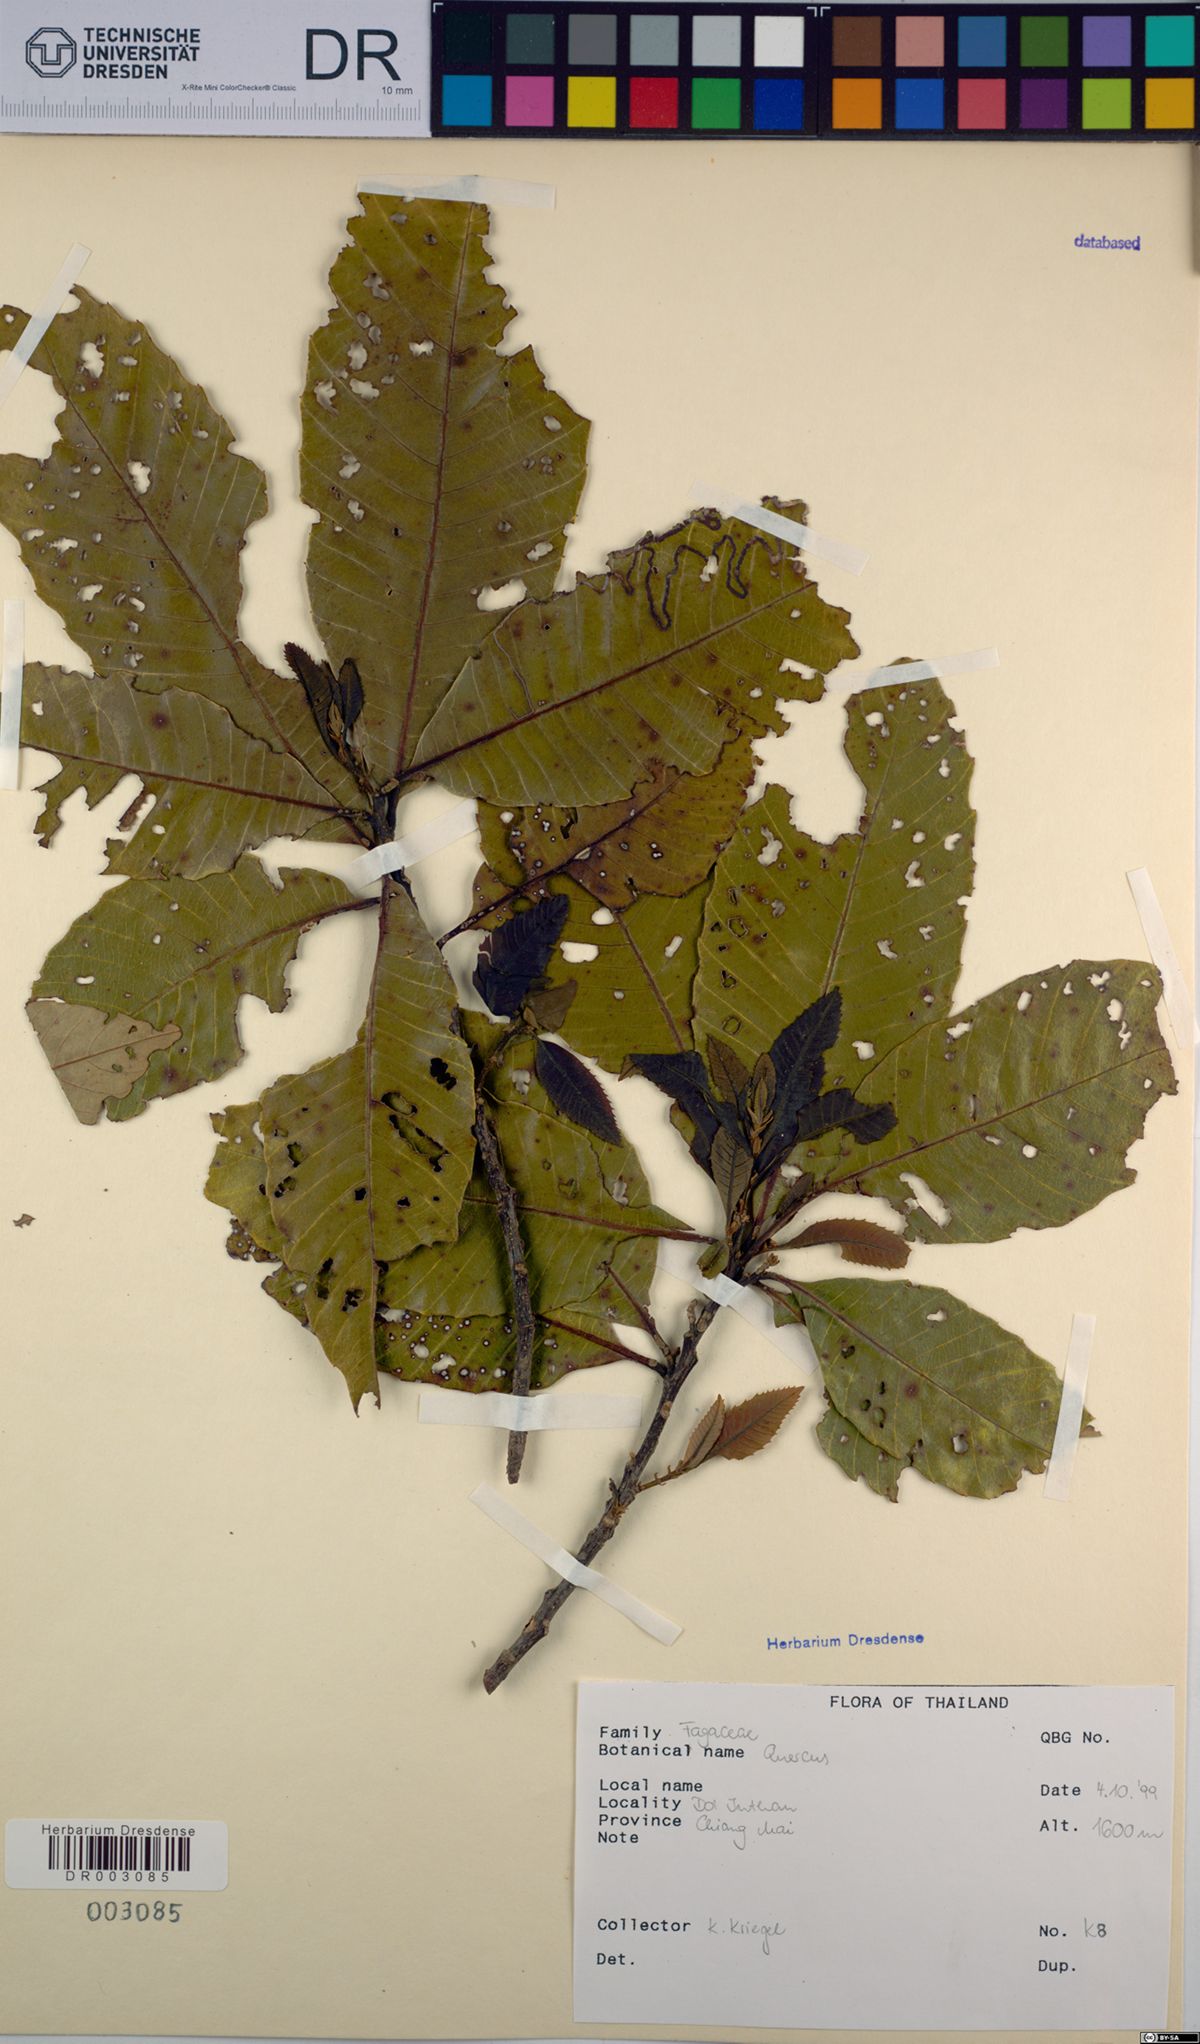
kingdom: Plantae
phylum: Tracheophyta
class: Magnoliopsida
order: Fagales
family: Fagaceae
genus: Quercus
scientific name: Quercus
